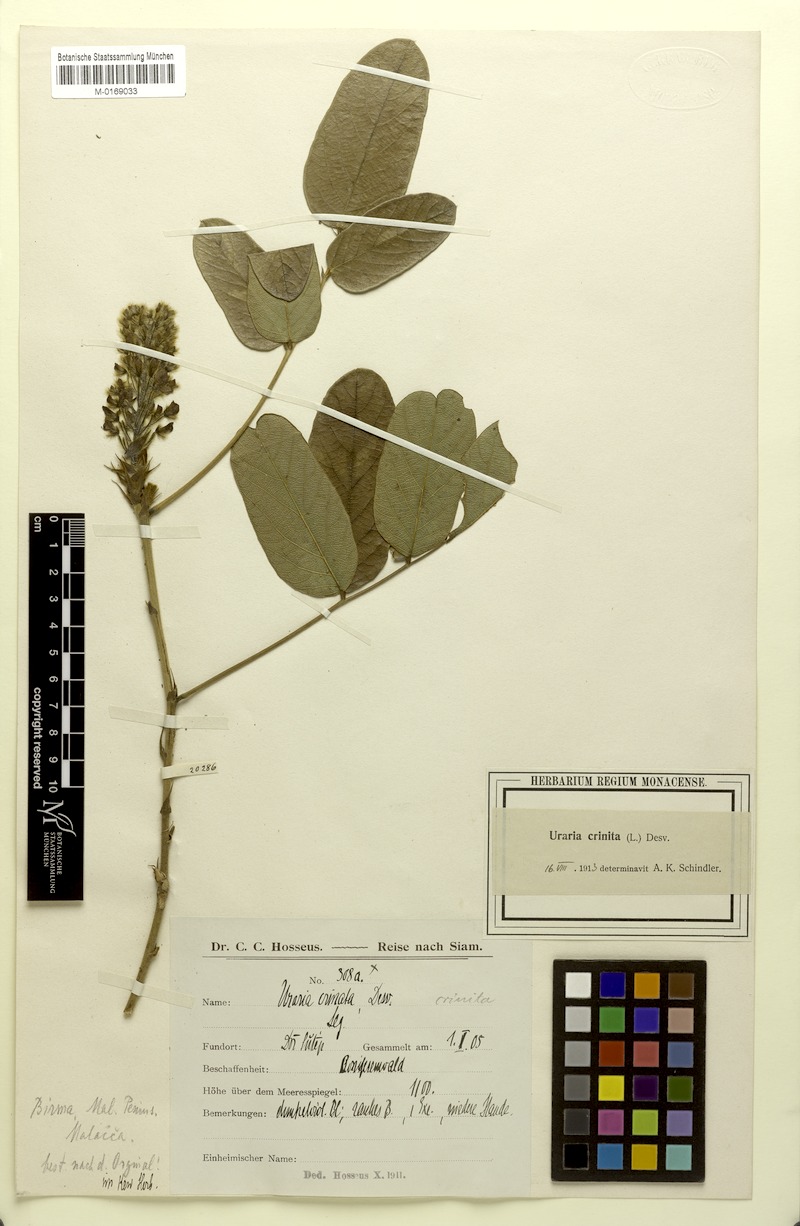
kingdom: Plantae
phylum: Tracheophyta
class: Magnoliopsida
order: Fabales
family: Fabaceae
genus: Uraria
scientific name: Uraria crinita
